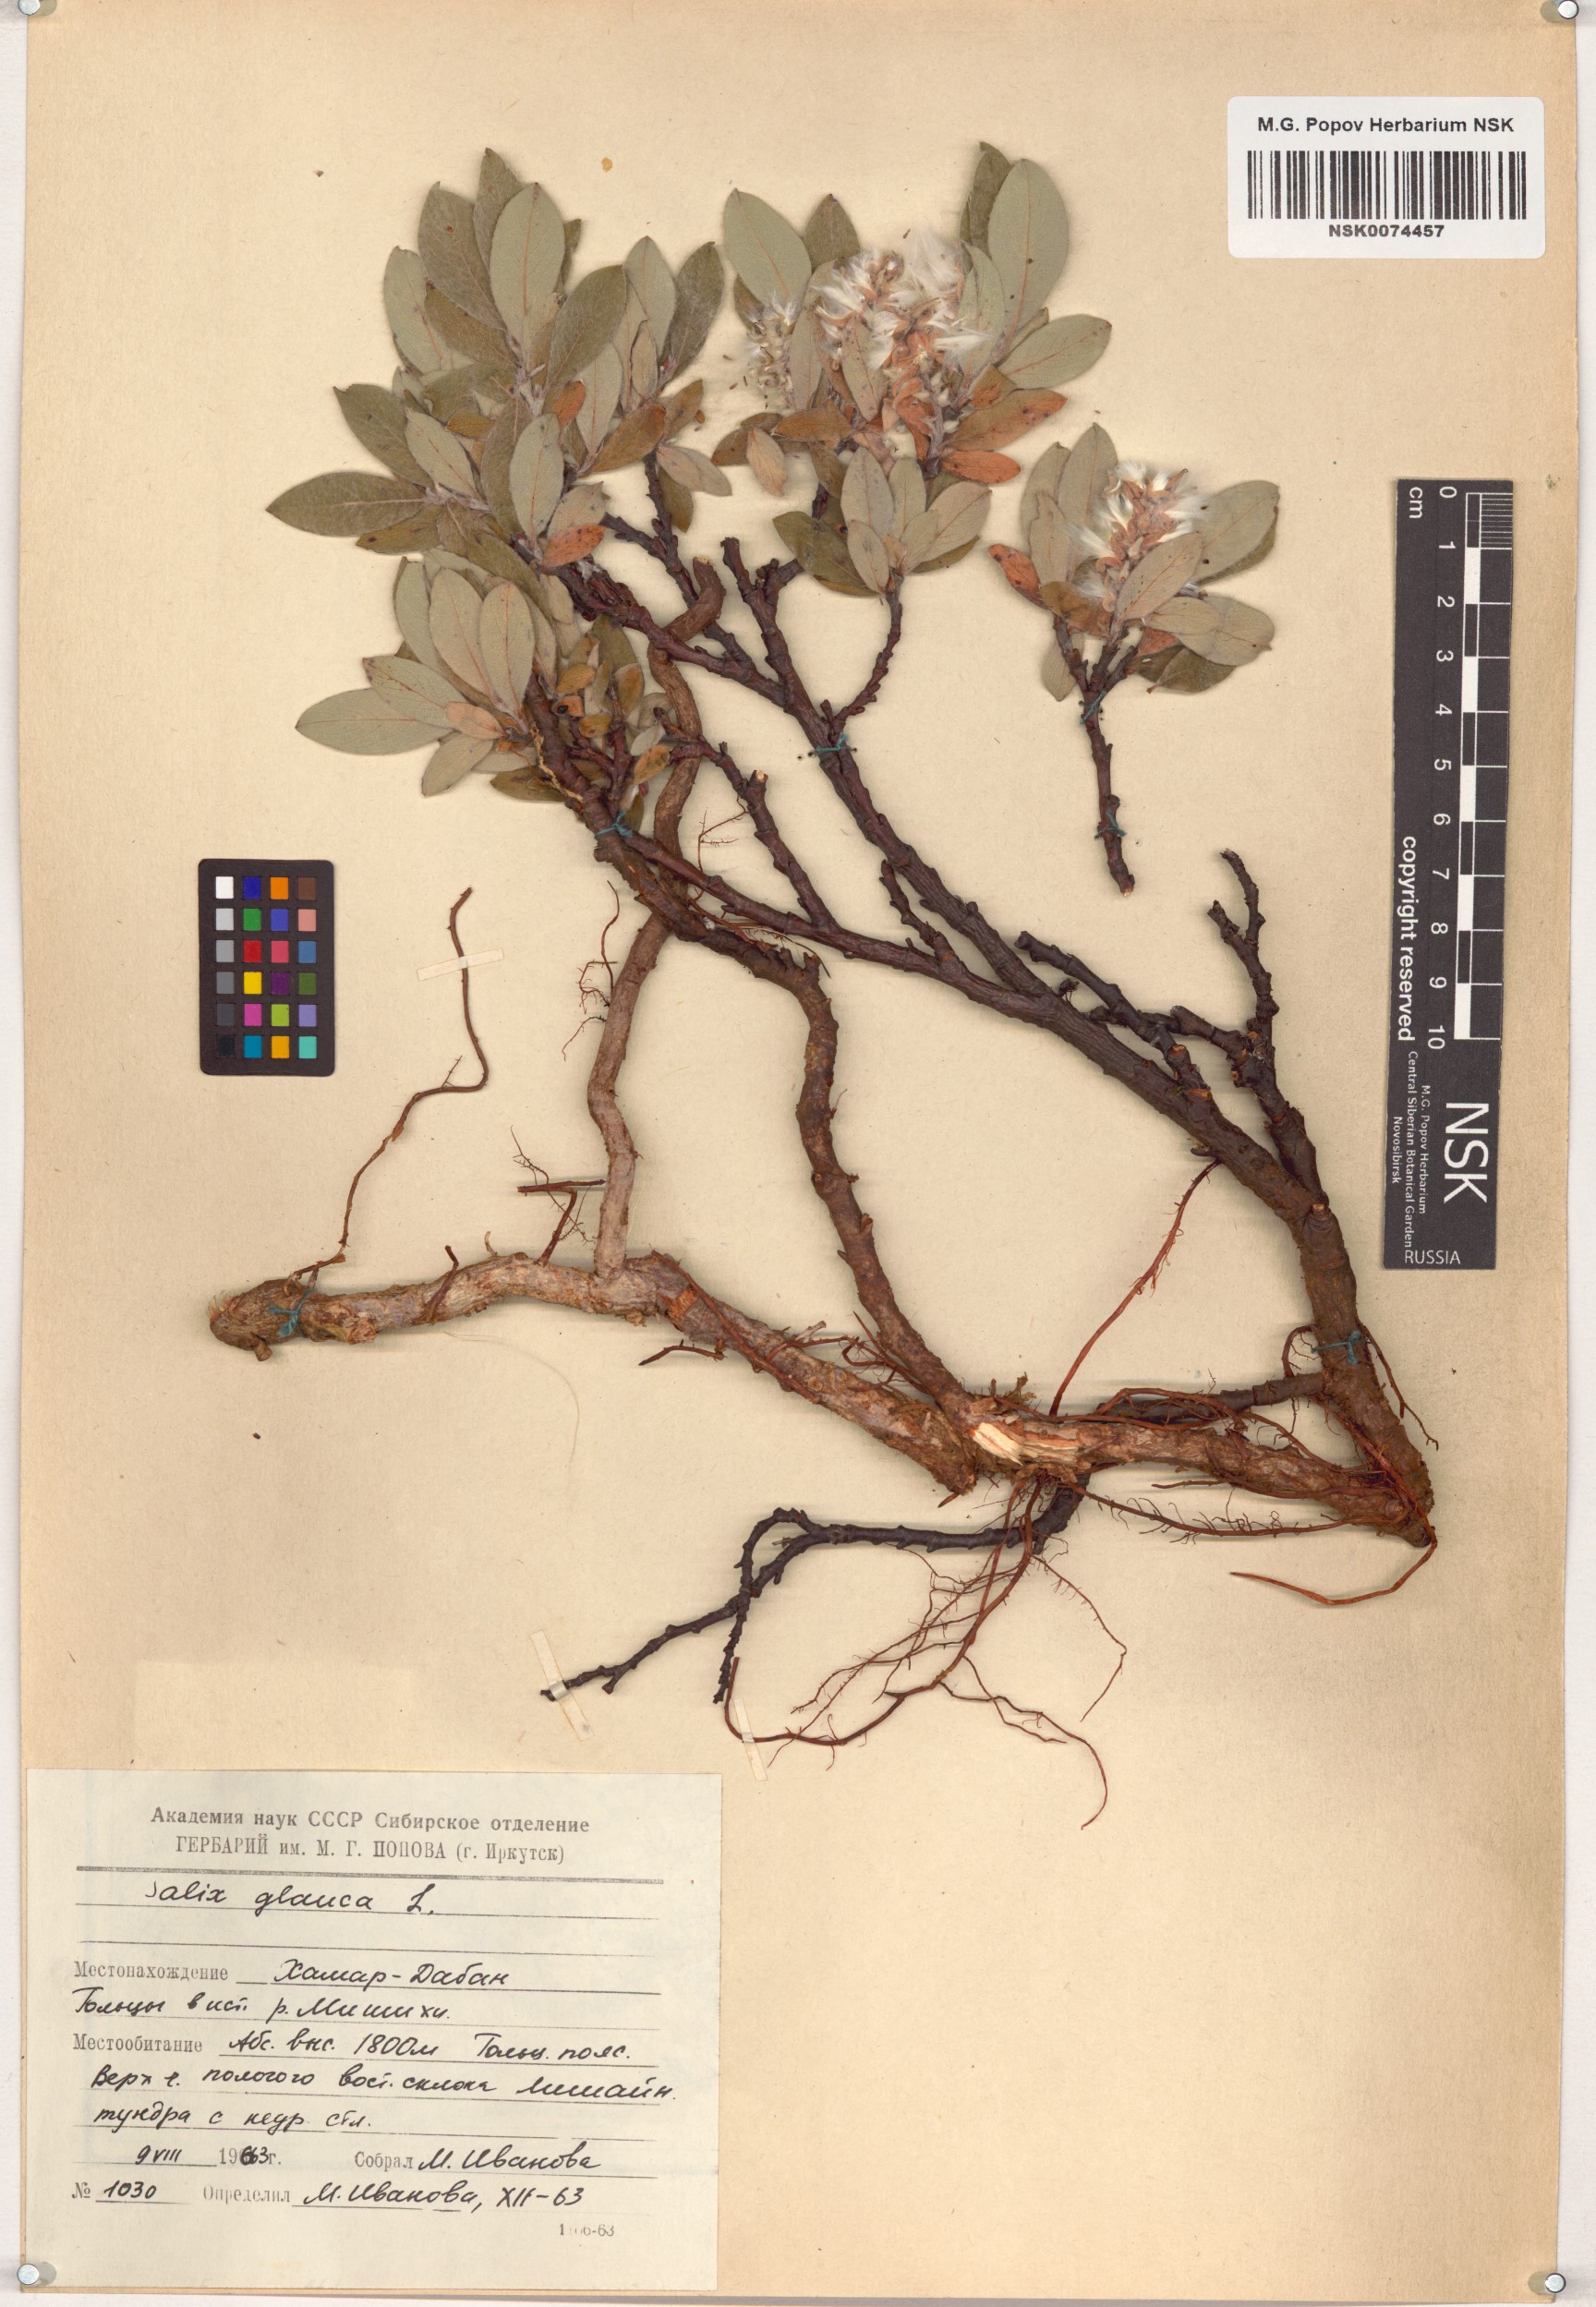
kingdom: Plantae
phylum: Tracheophyta
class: Magnoliopsida
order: Malpighiales
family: Salicaceae
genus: Salix
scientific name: Salix glauca
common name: Glaucous willow
